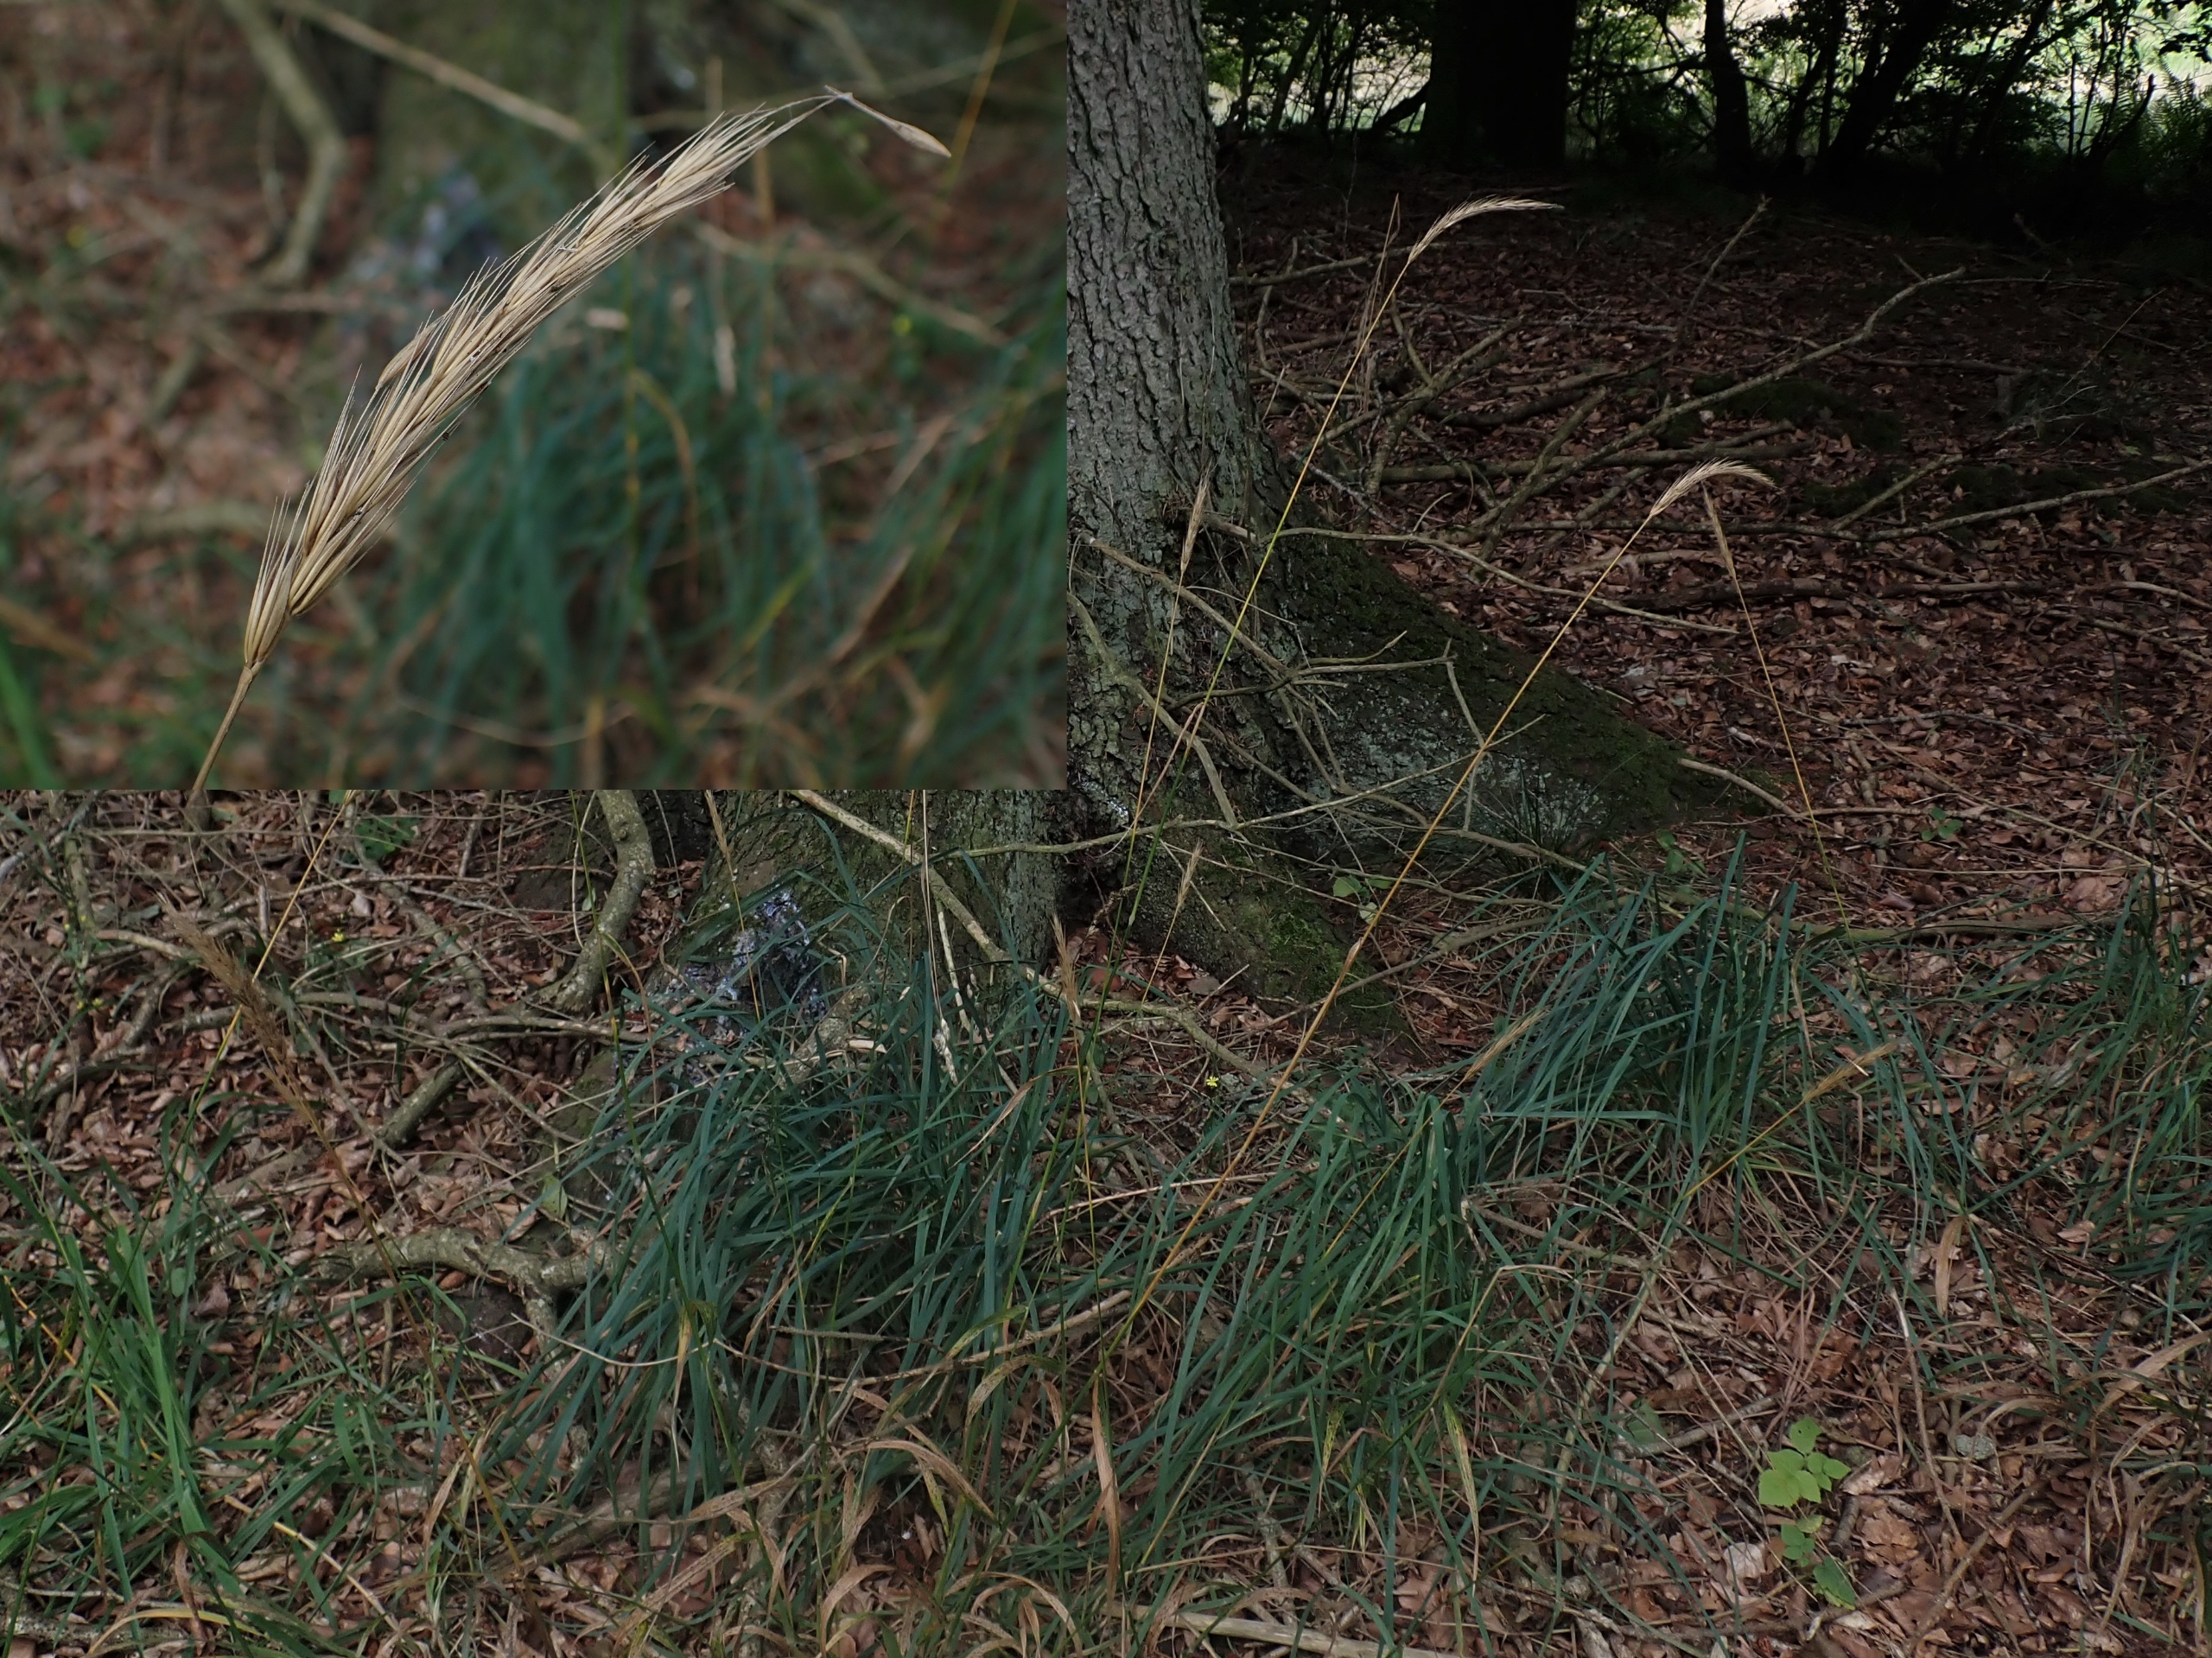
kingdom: Plantae
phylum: Tracheophyta
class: Liliopsida
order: Poales
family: Poaceae
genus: Hordelymus
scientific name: Hordelymus europaeus
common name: Skovbyg
